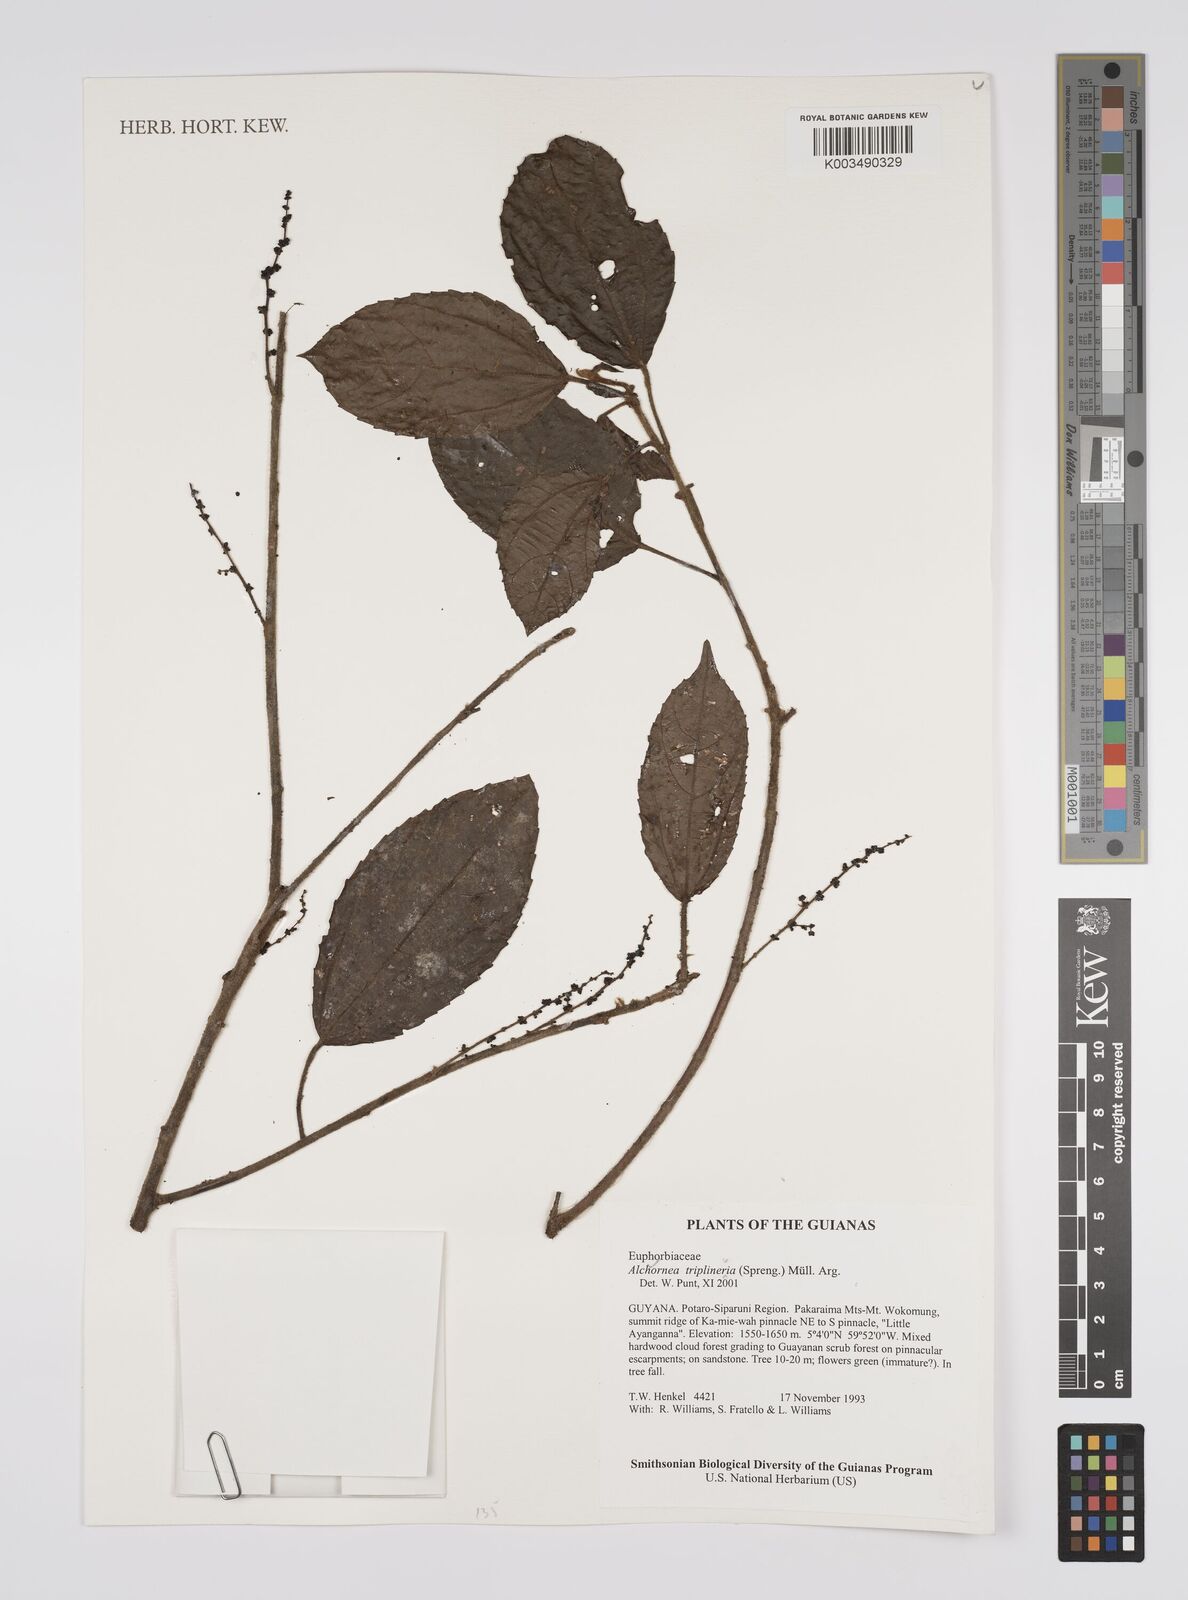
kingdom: Plantae
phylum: Tracheophyta
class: Magnoliopsida
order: Malpighiales
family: Euphorbiaceae
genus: Alchornea
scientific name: Alchornea triplinervia
